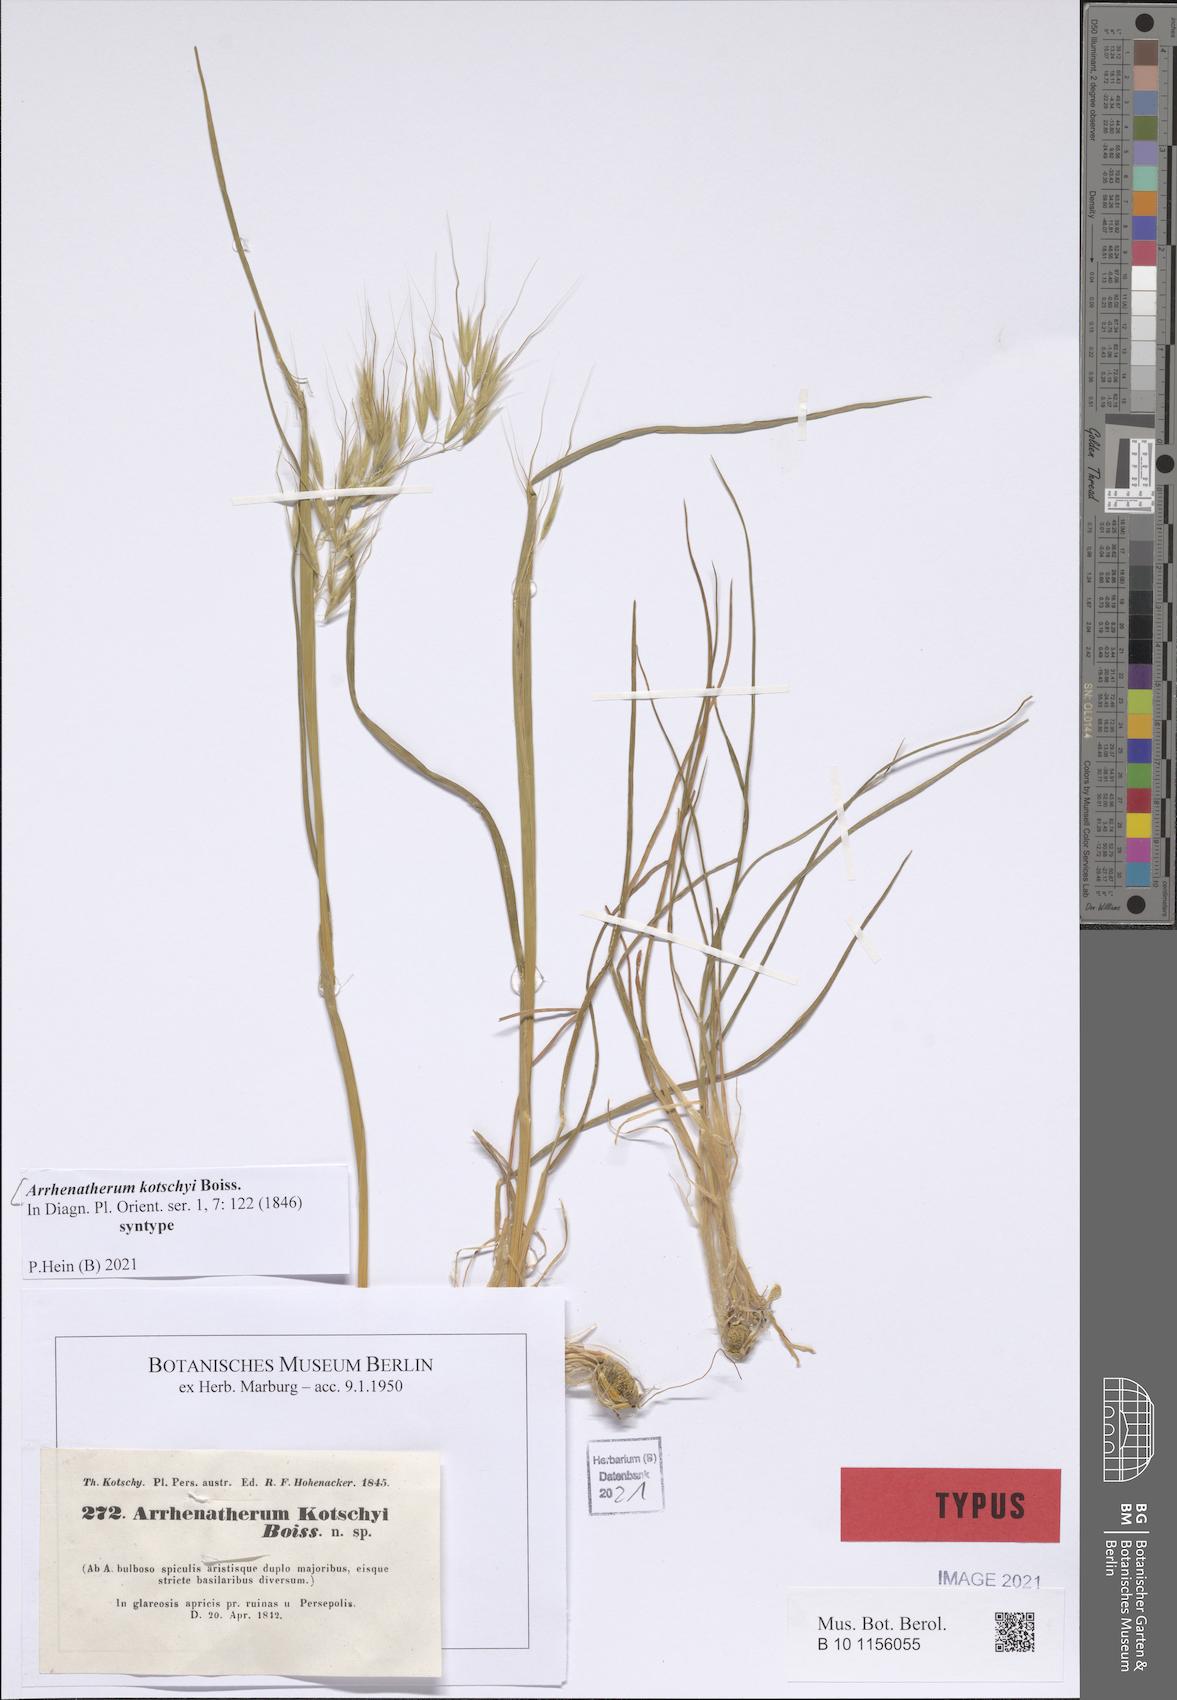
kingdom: Plantae
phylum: Tracheophyta
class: Liliopsida
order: Poales
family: Poaceae
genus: Arrhenatherum
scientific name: Arrhenatherum kotschyi
